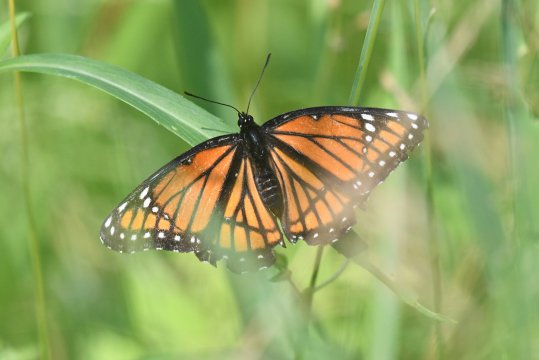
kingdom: Animalia
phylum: Arthropoda
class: Insecta
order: Lepidoptera
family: Nymphalidae
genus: Limenitis
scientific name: Limenitis archippus
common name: Viceroy
